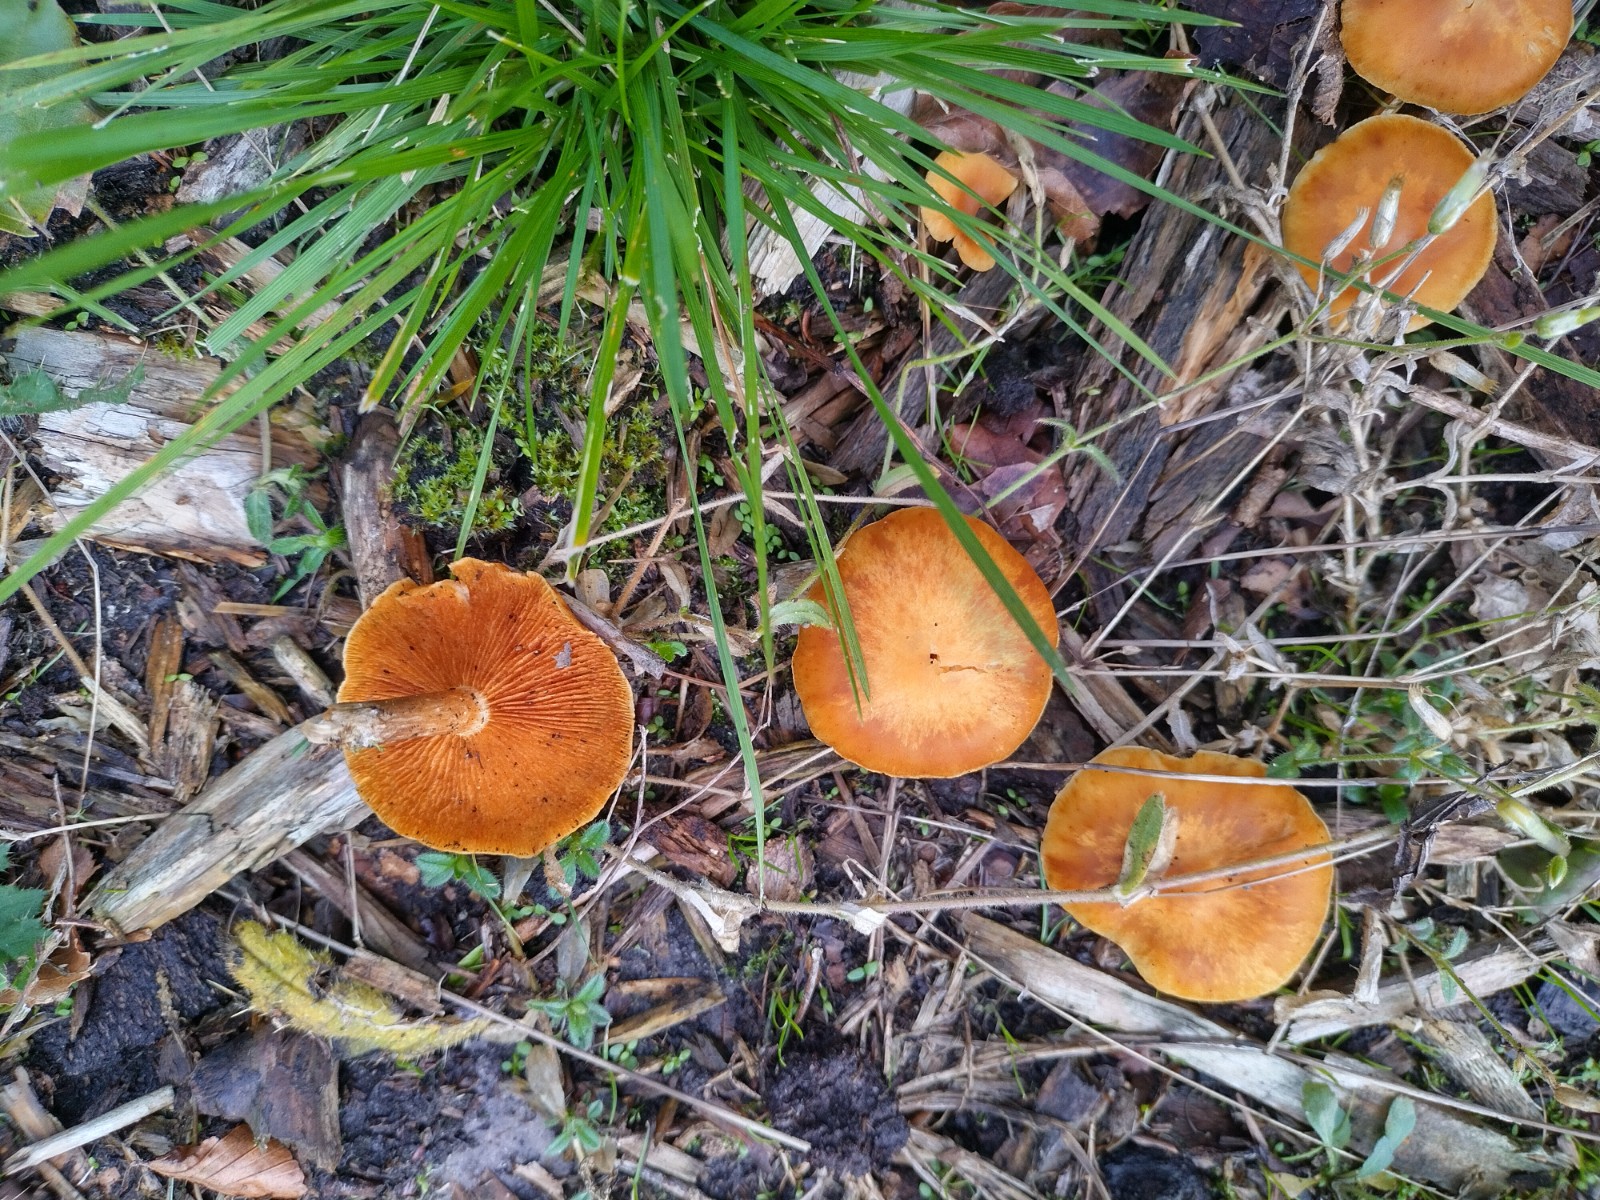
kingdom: Fungi
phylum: Basidiomycota
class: Agaricomycetes
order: Agaricales
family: Hymenogastraceae
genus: Gymnopilus
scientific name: Gymnopilus penetrans
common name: plettet flammehat
